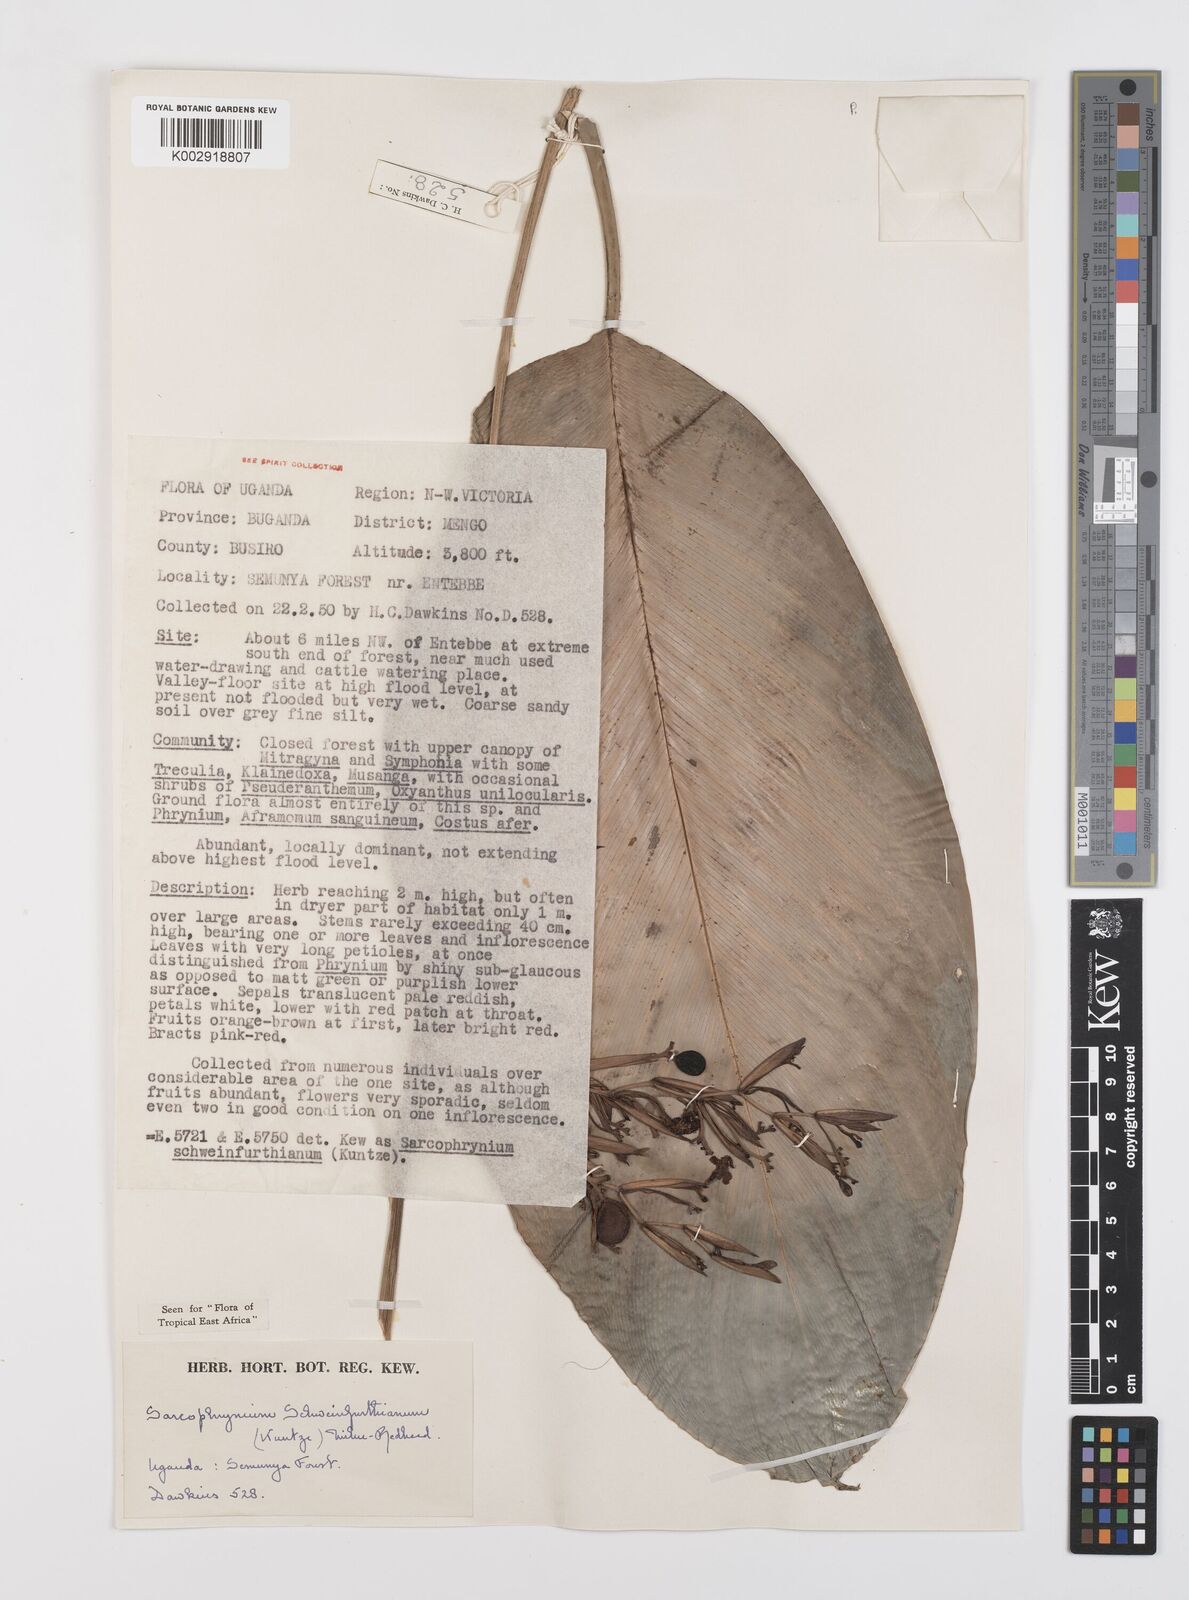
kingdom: Plantae
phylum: Tracheophyta
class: Liliopsida
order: Zingiberales
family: Marantaceae
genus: Sarcophrynium
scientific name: Sarcophrynium schweinfurthianum
